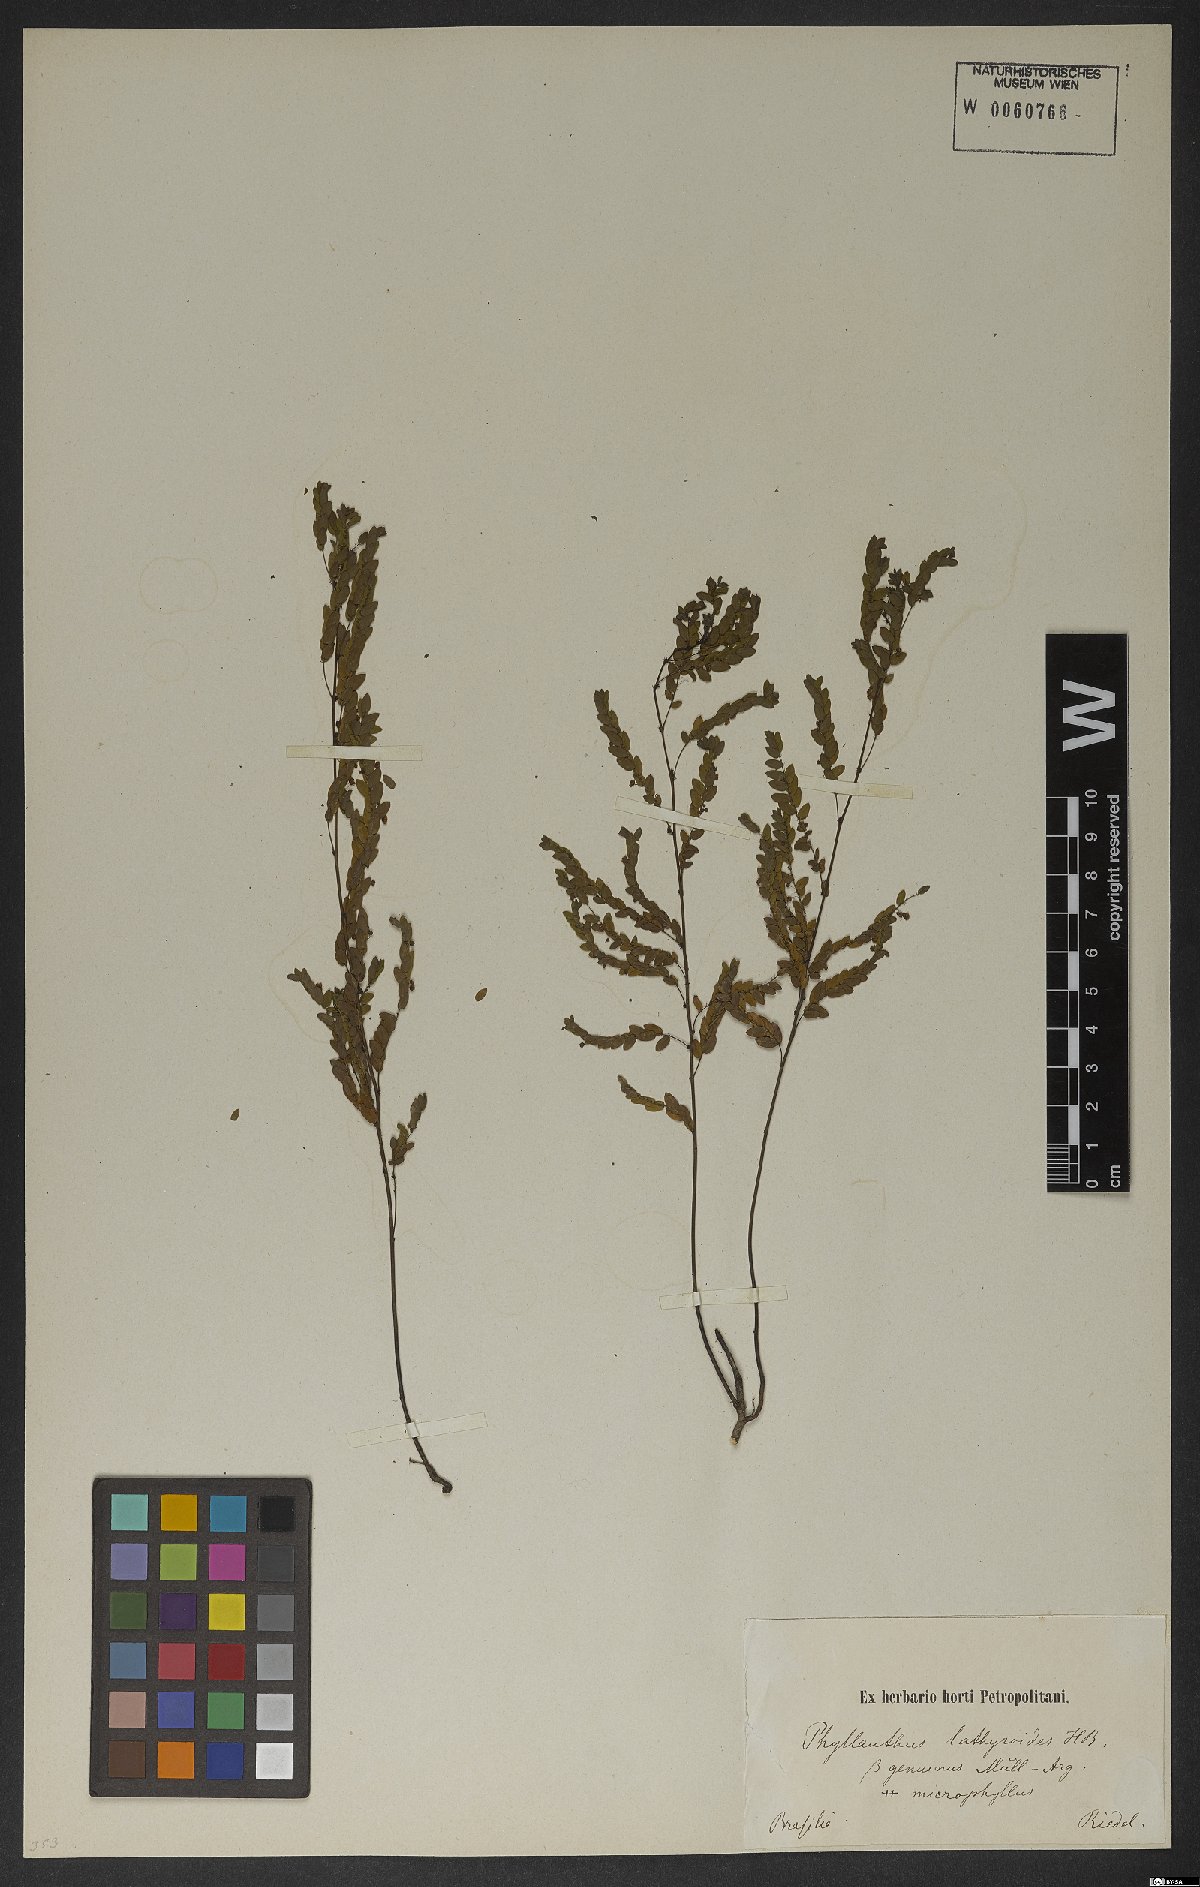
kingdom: Plantae
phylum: Tracheophyta
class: Magnoliopsida
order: Malpighiales
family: Phyllanthaceae
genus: Phyllanthus
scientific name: Phyllanthus niruri
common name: Niruri
